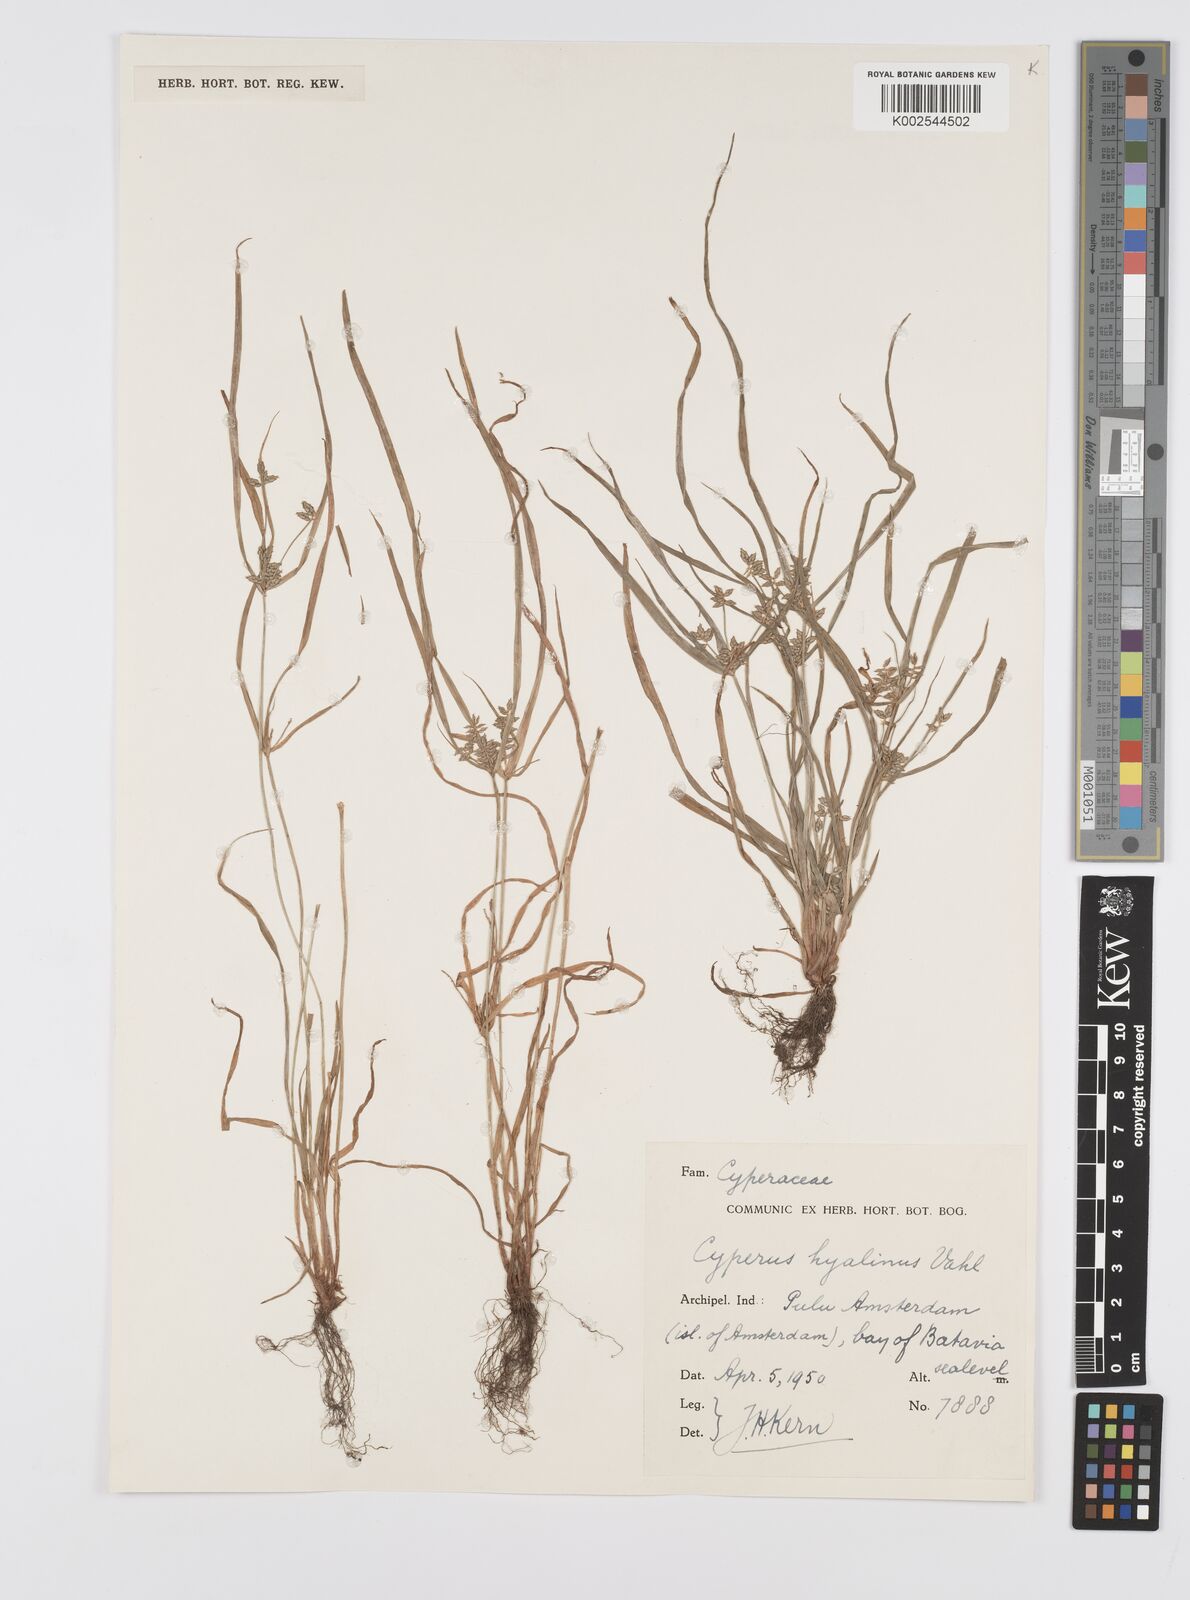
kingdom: Plantae
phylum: Tracheophyta
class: Liliopsida
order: Poales
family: Cyperaceae
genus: Cyperus
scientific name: Cyperus hyalinus
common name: Queensland sedge
